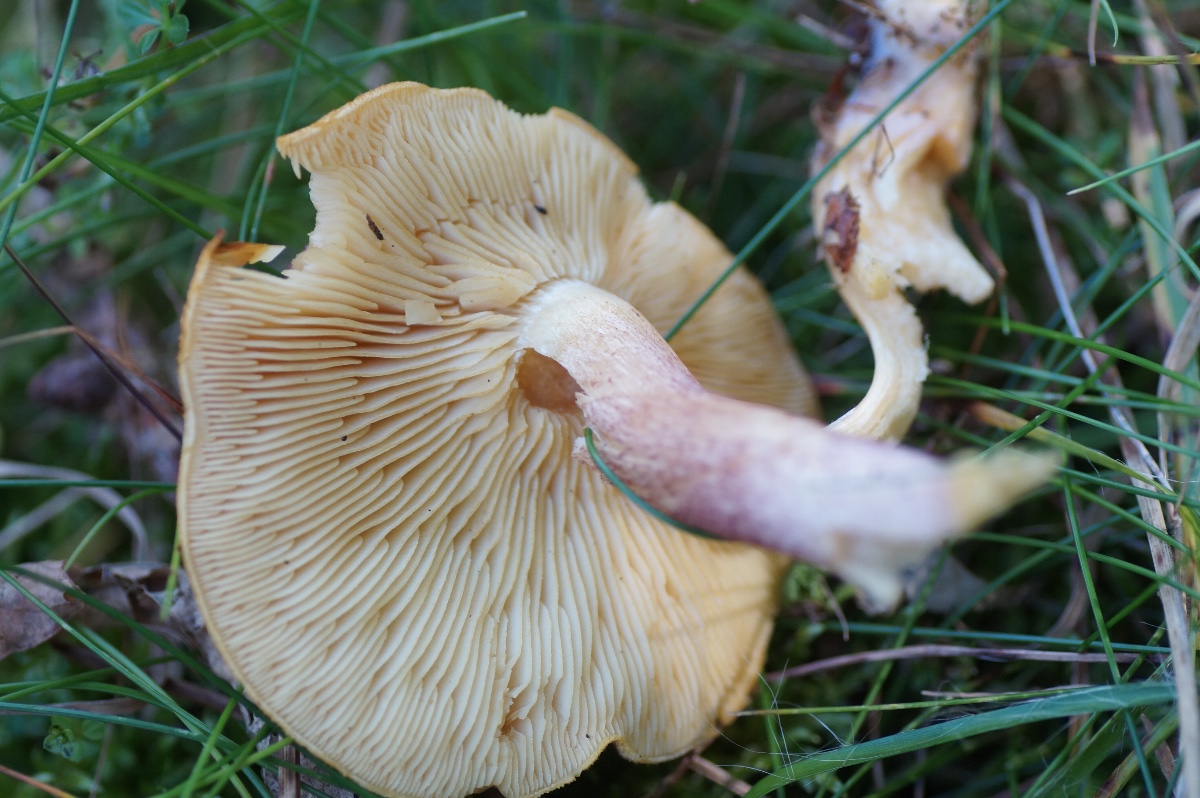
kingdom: Fungi
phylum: Basidiomycota
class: Agaricomycetes
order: Agaricales
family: Tricholomataceae
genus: Tricholomopsis
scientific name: Tricholomopsis rutilans
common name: purpur-væbnerhat
